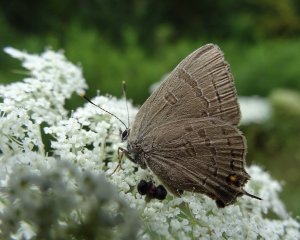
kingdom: Animalia
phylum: Arthropoda
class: Insecta
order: Lepidoptera
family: Lycaenidae
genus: Satyrium
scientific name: Satyrium calanus
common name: Banded Hairstreak
